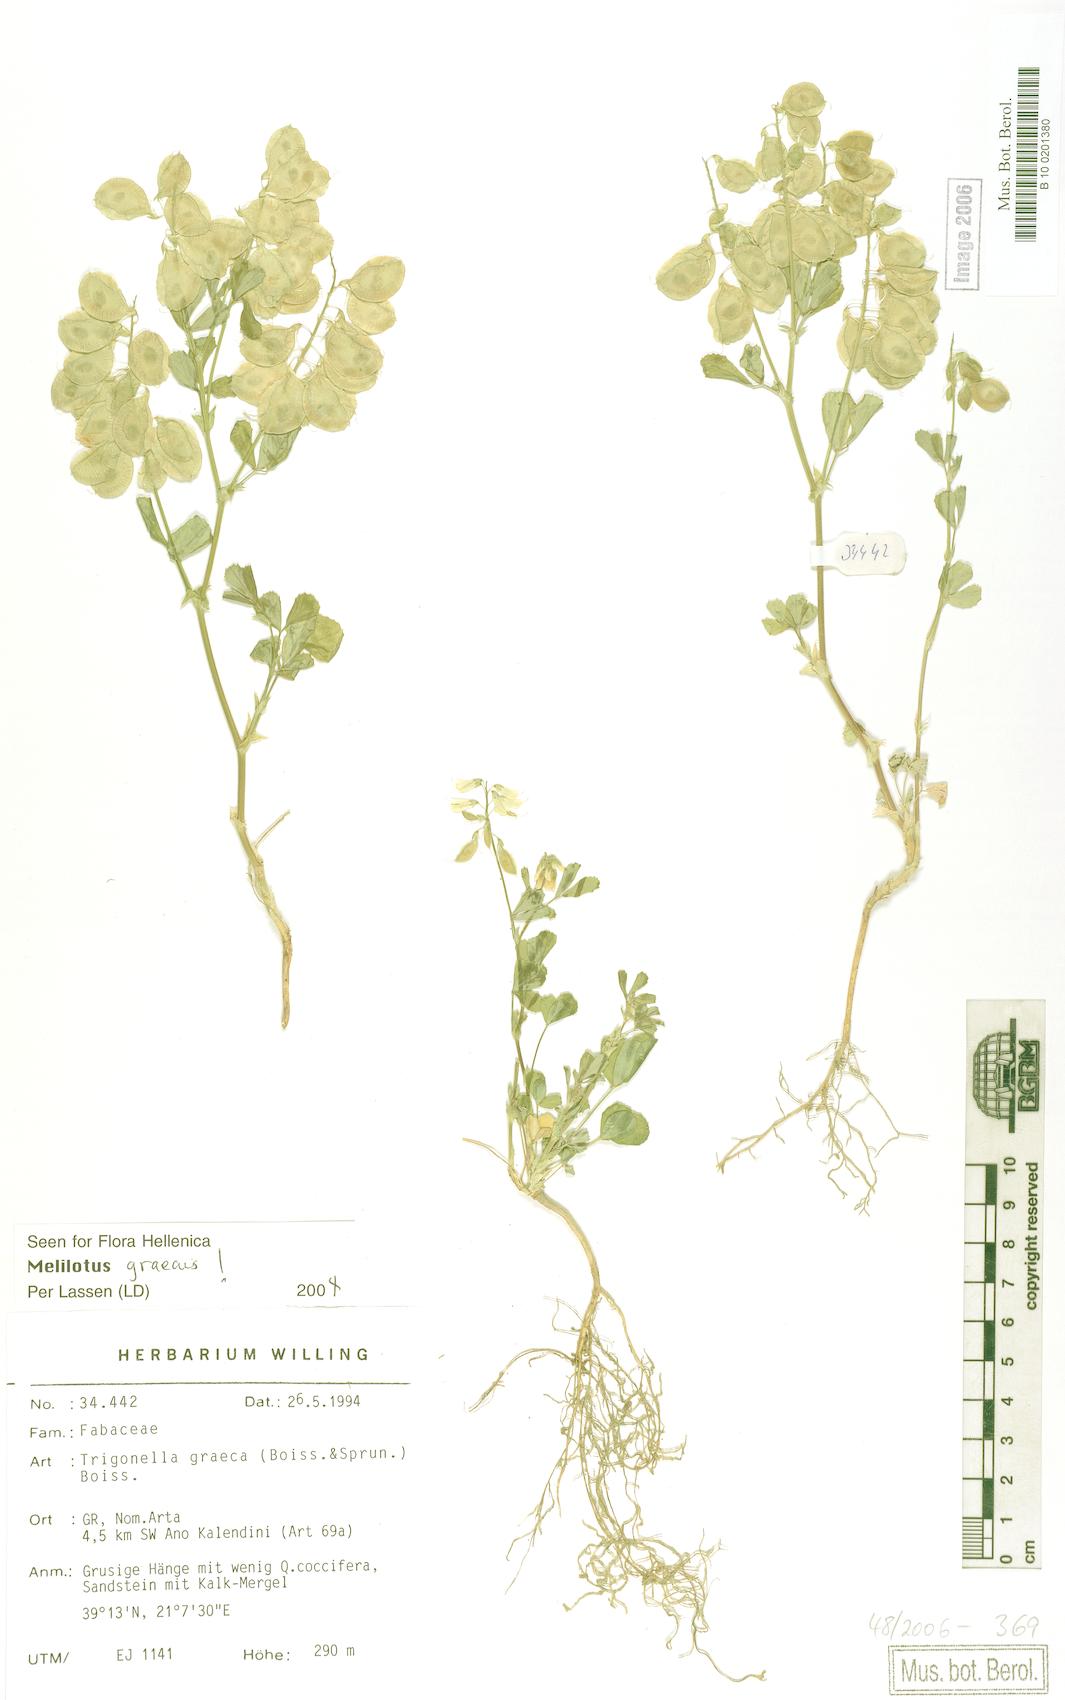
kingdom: Plantae
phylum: Tracheophyta
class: Magnoliopsida
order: Fabales
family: Fabaceae
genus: Trigonella
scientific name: Trigonella graeca
